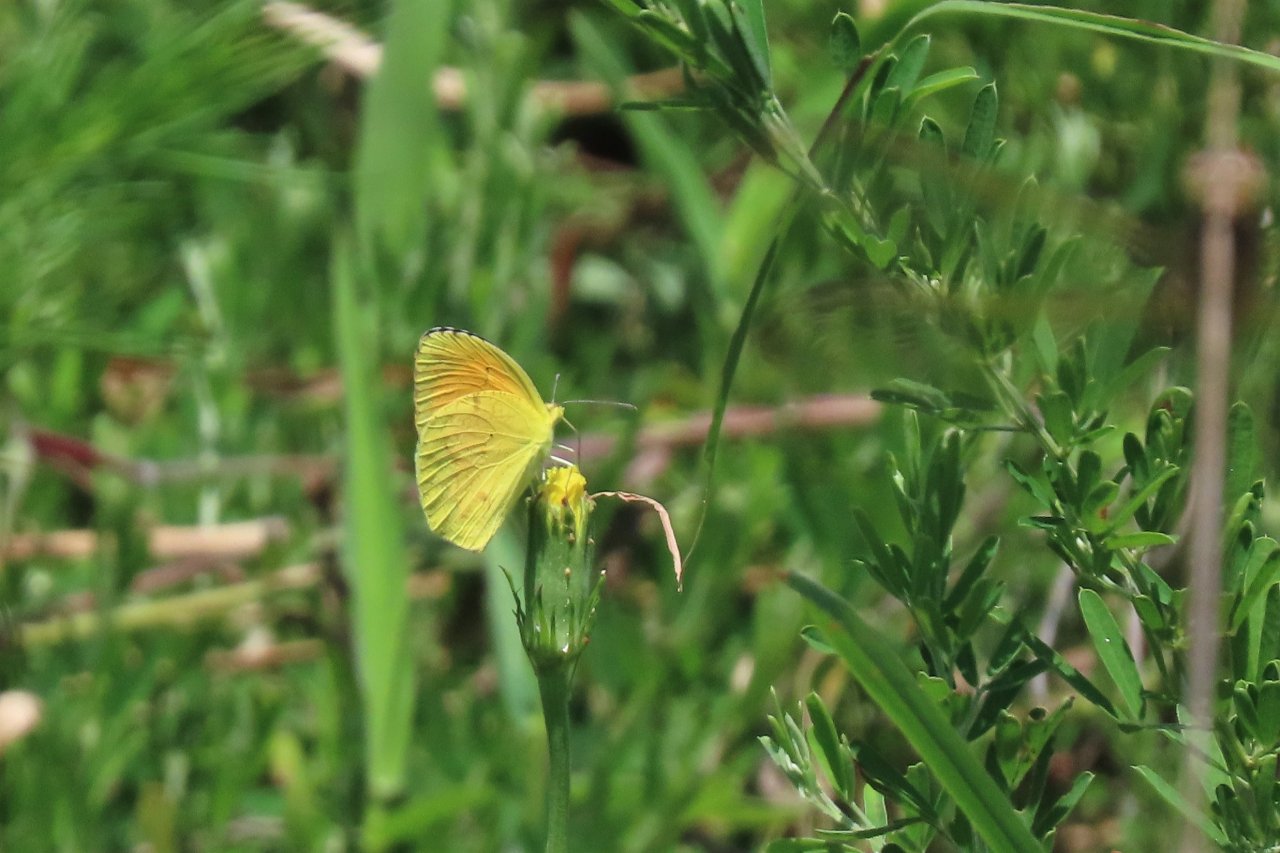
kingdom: Animalia
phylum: Arthropoda
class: Insecta
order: Lepidoptera
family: Pieridae
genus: Abaeis
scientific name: Abaeis nicippe
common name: Sleepy Orange
